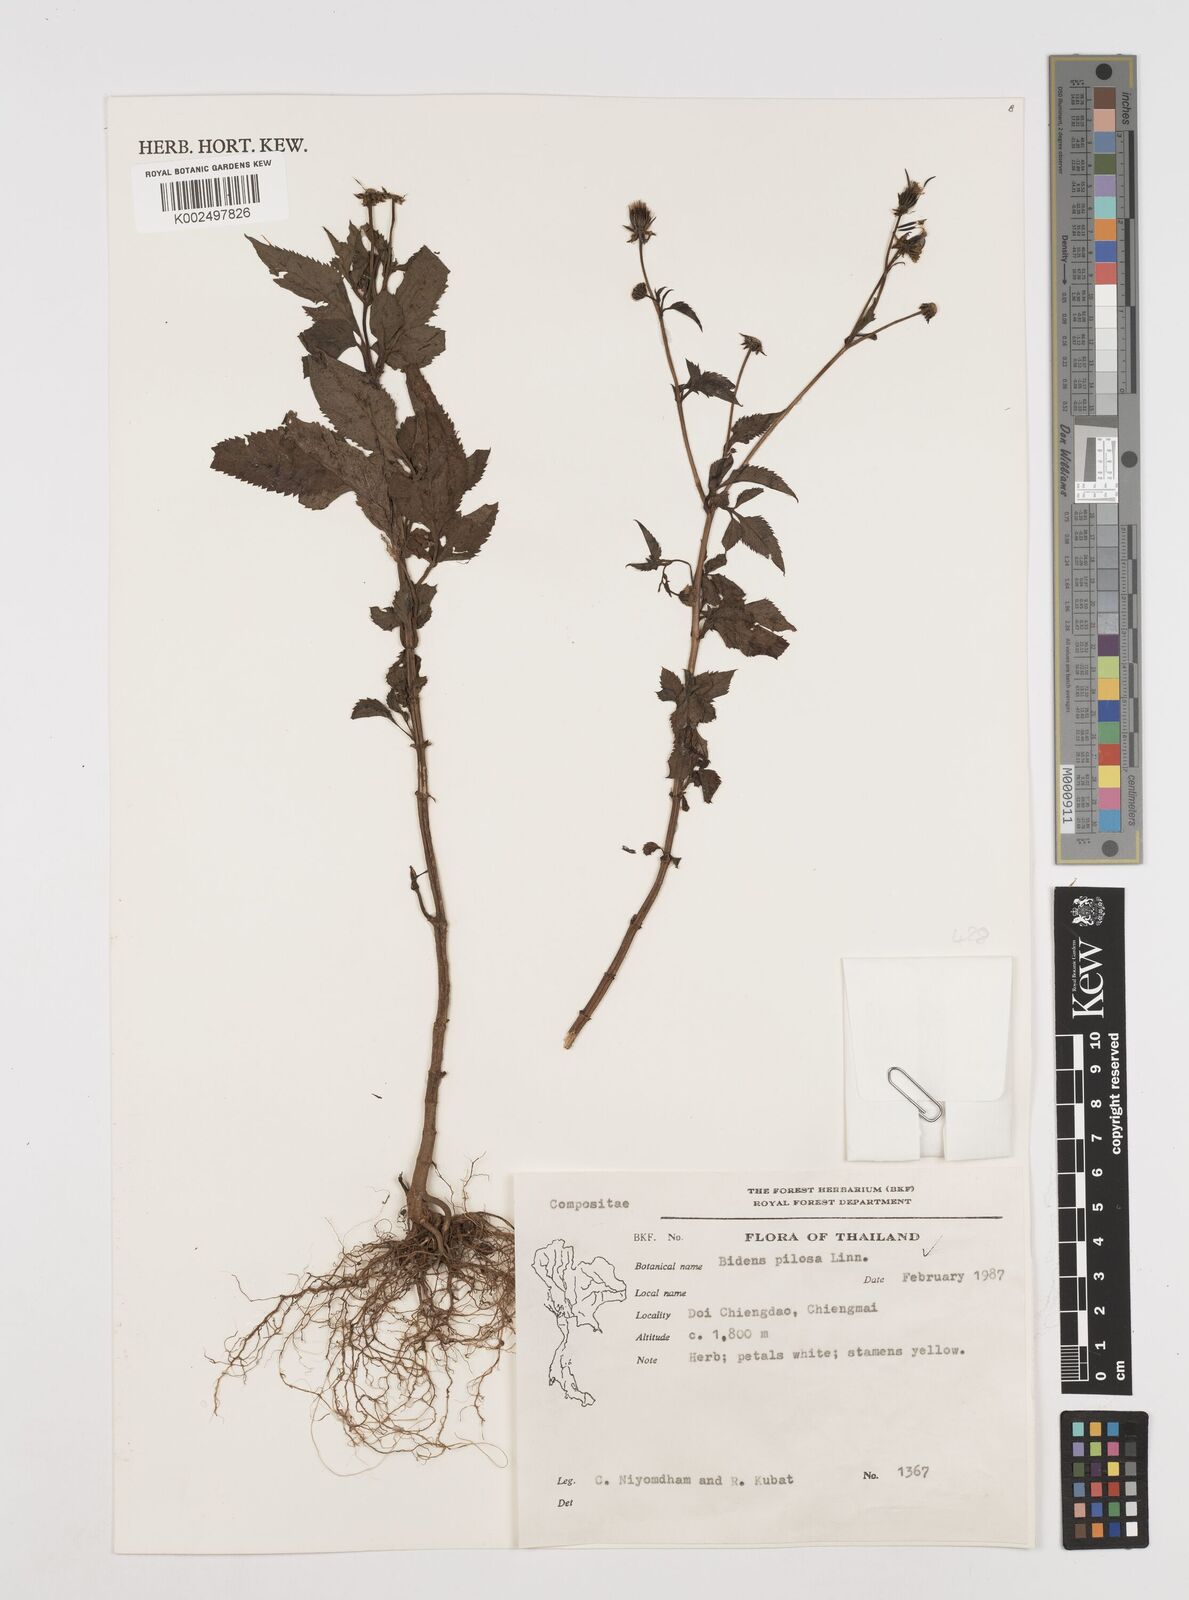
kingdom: Plantae
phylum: Tracheophyta
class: Magnoliopsida
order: Asterales
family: Asteraceae
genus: Bidens
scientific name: Bidens pilosa
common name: Black-jack
